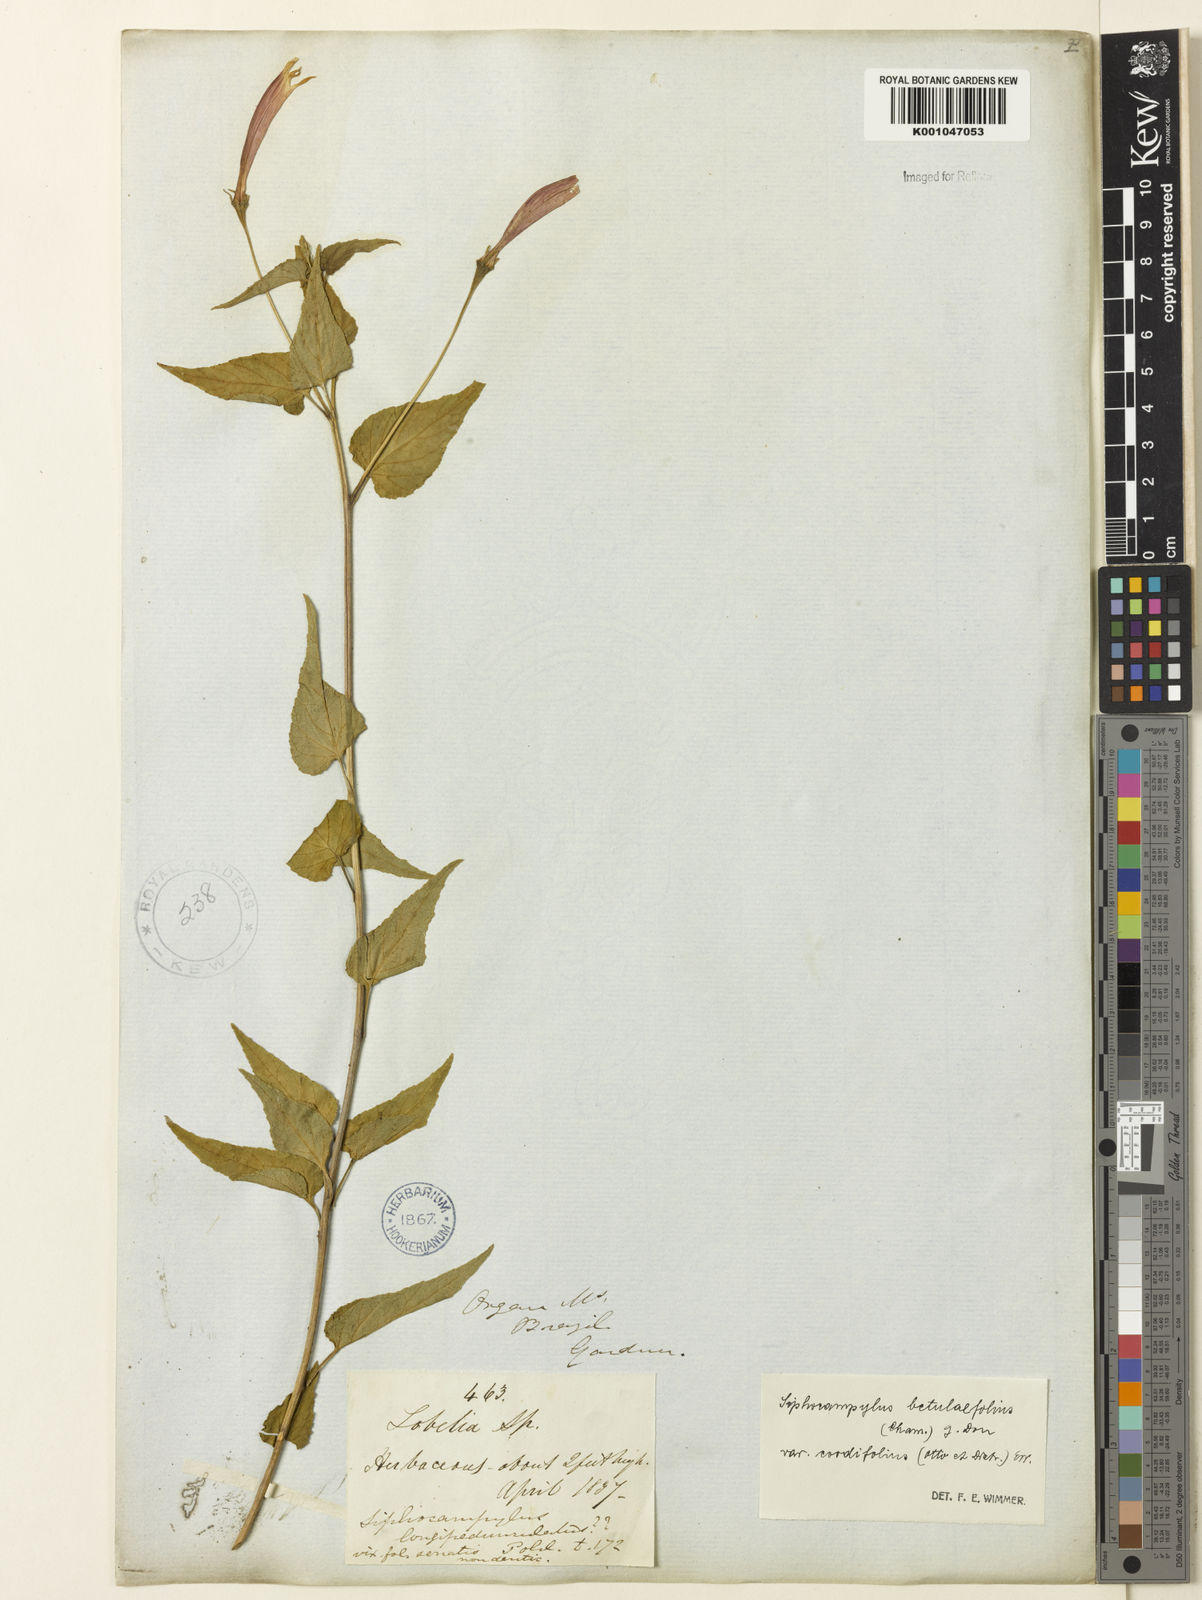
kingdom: Plantae
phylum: Tracheophyta
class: Magnoliopsida
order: Asterales
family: Campanulaceae
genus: Siphocampylus
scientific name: Siphocampylus betulifolius
